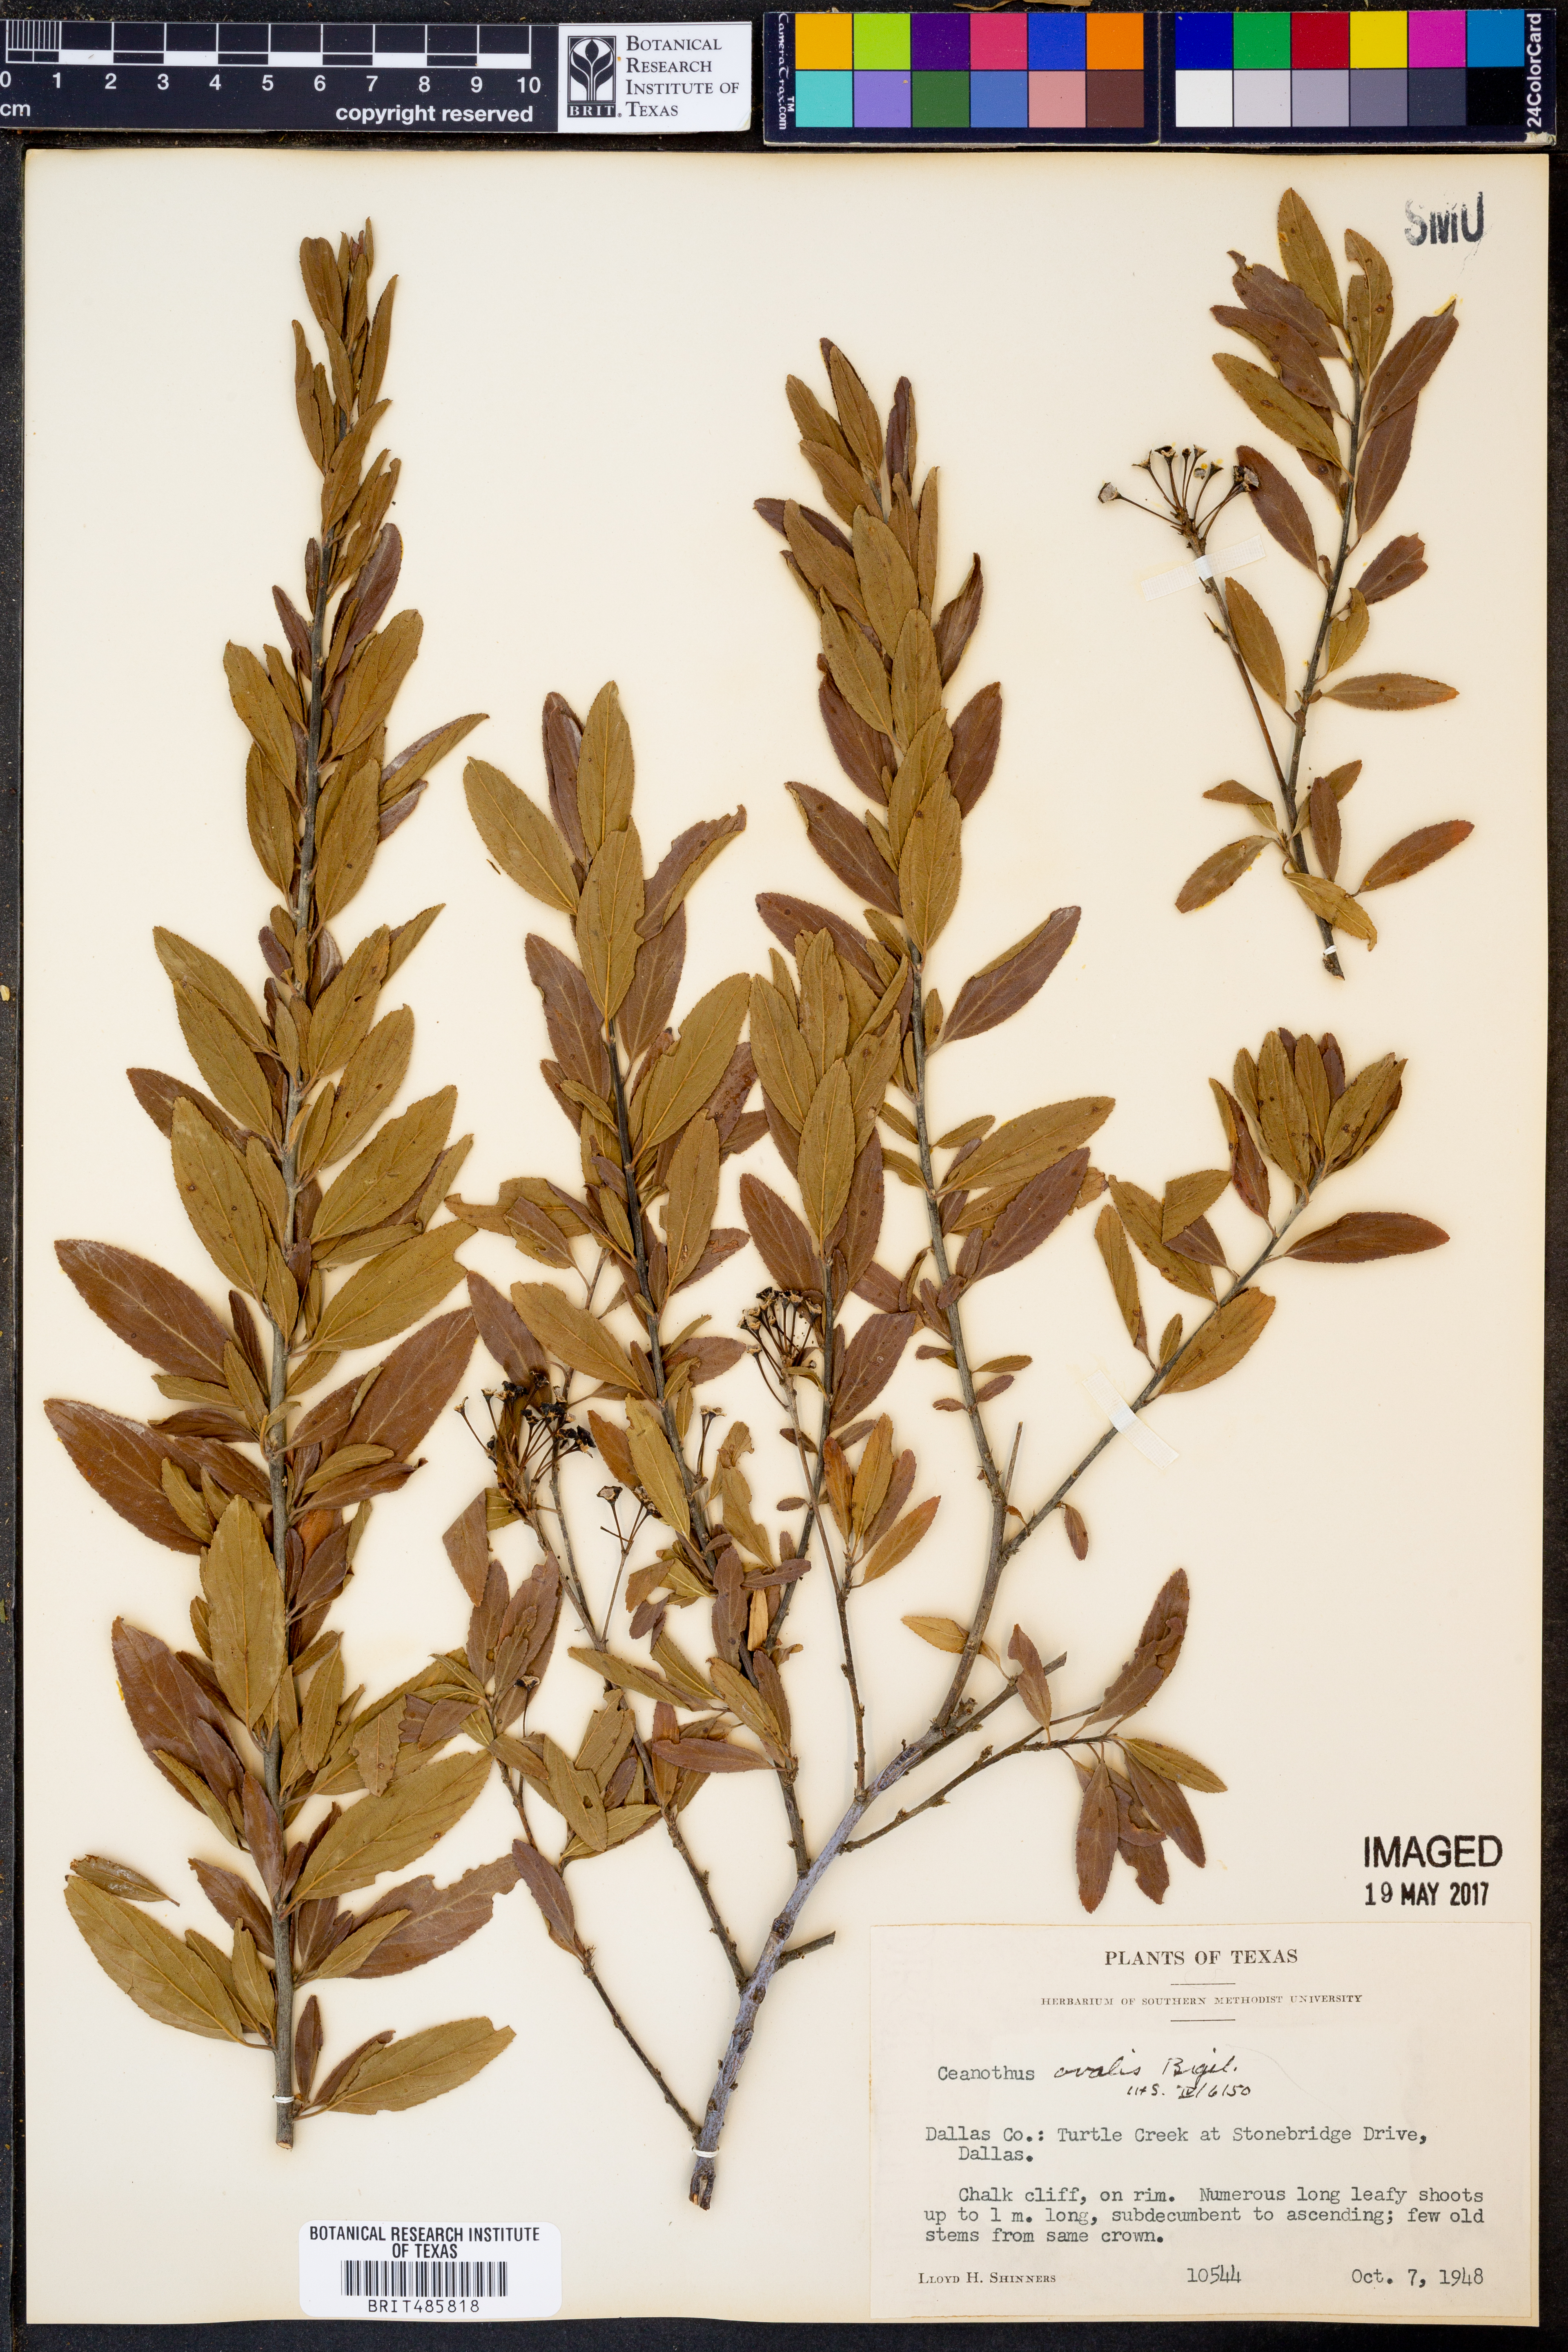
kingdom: Plantae
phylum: Tracheophyta
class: Magnoliopsida
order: Rosales
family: Rhamnaceae
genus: Ceanothus
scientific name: Ceanothus herbaceus
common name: Inland ceanothus
